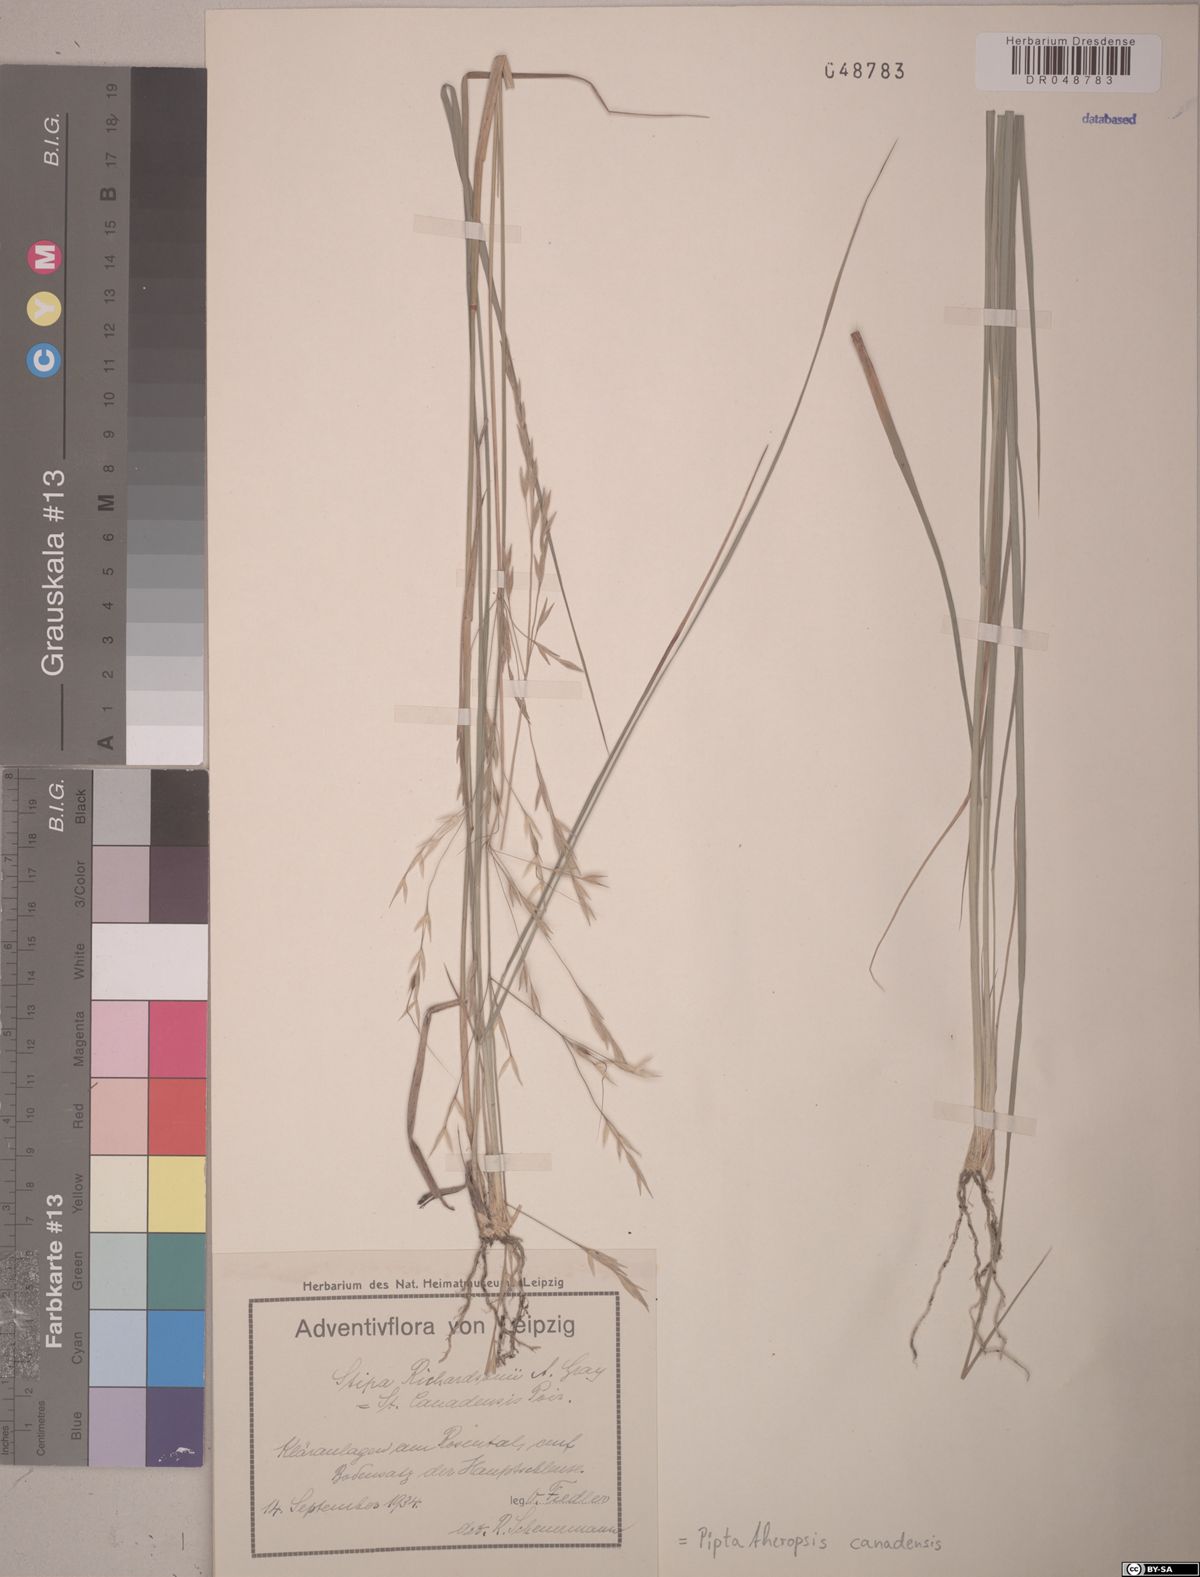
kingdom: Plantae
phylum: Tracheophyta
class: Liliopsida
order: Poales
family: Poaceae
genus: Piptatheropsis
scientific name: Piptatheropsis canadensis
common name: Canada mountain ricegrass
